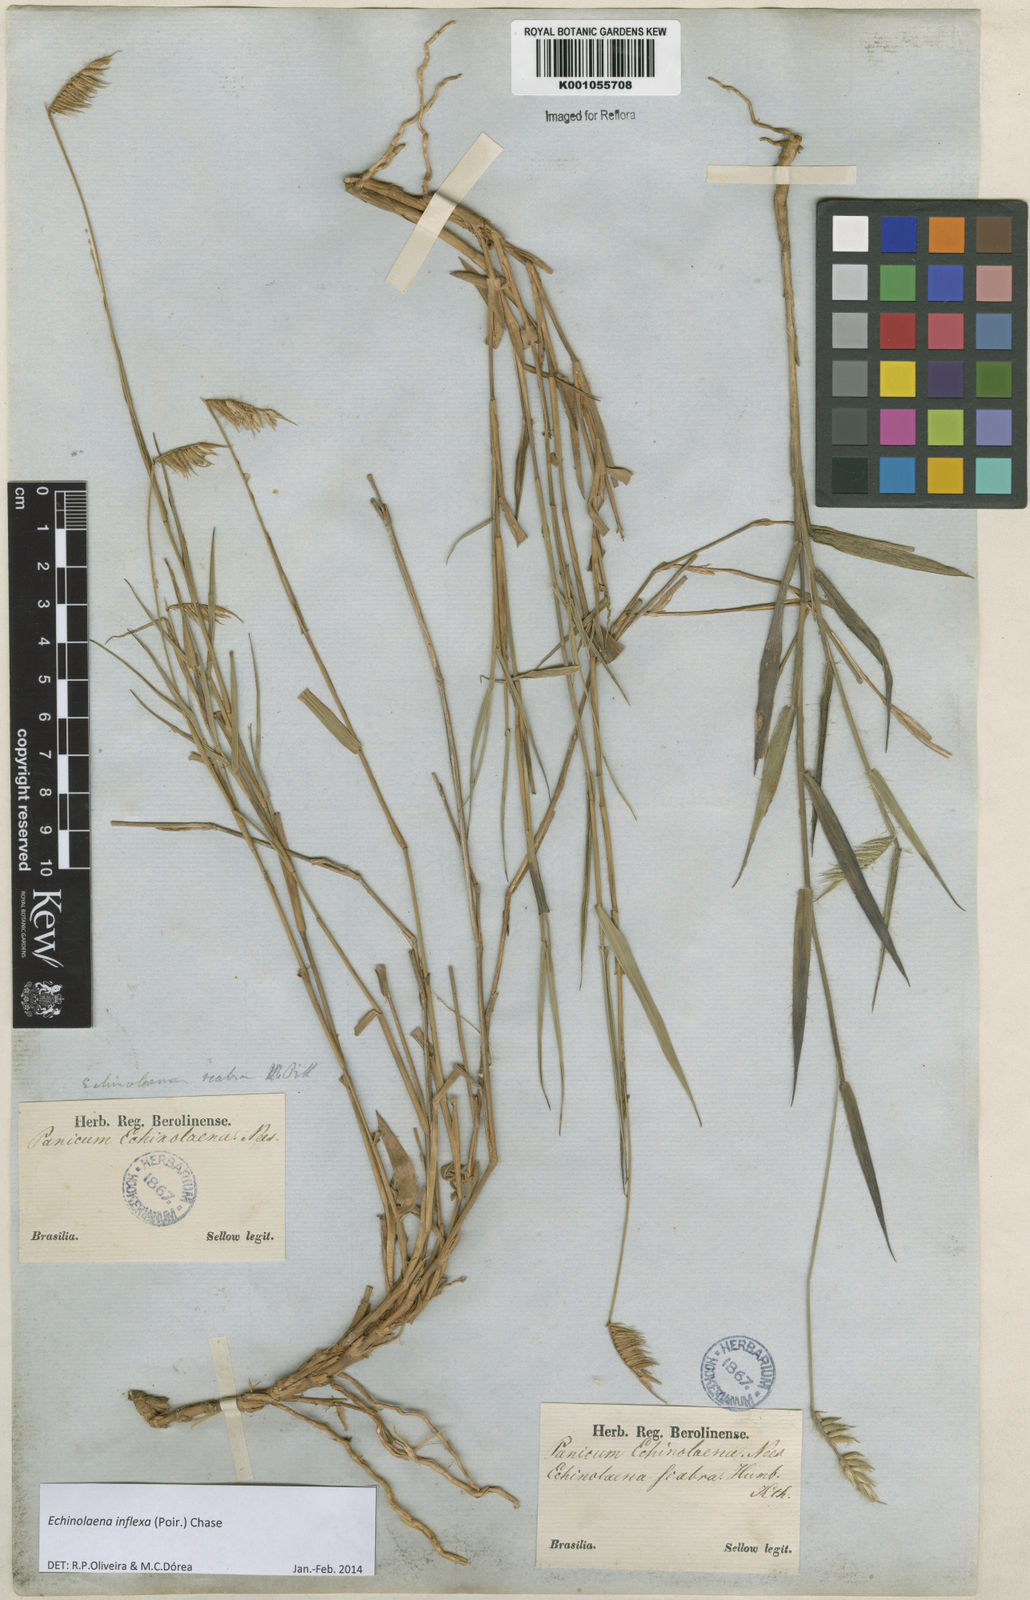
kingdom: Plantae
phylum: Tracheophyta
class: Liliopsida
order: Poales
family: Poaceae
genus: Echinolaena
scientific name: Echinolaena inflexa
